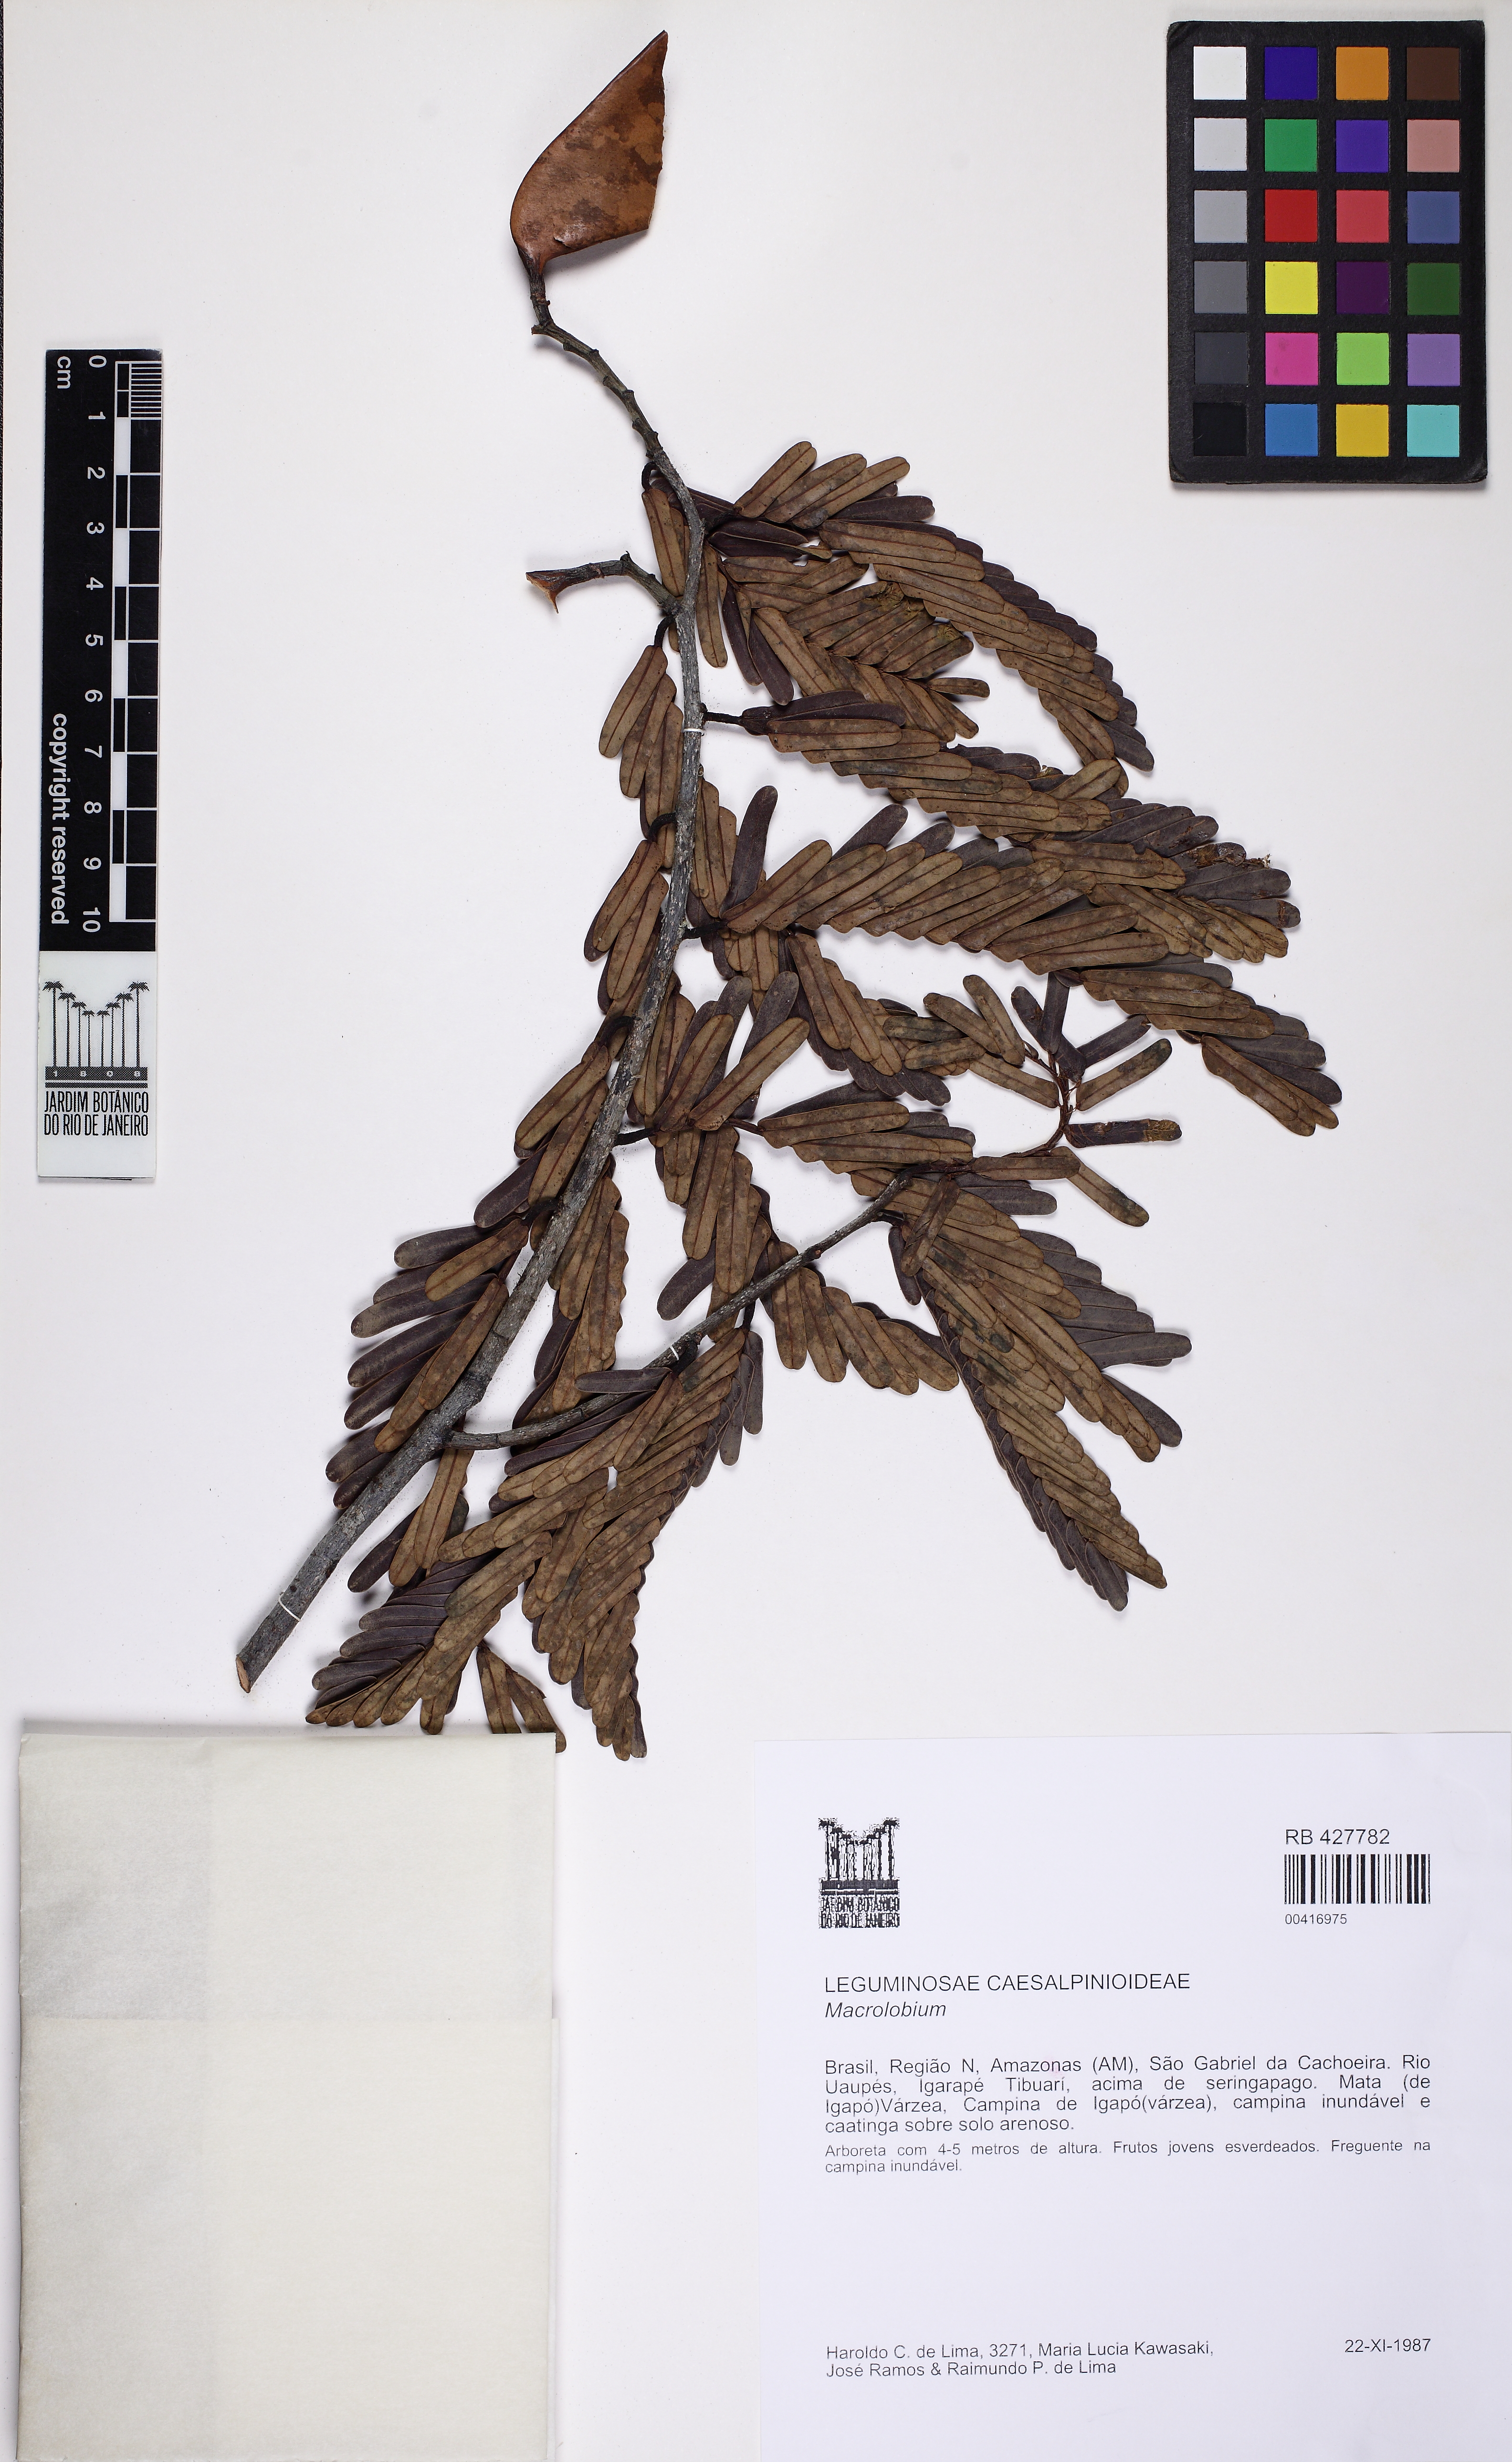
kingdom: Plantae
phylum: Tracheophyta
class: Magnoliopsida
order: Fabales
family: Fabaceae
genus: Macrolobium
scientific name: Macrolobium
